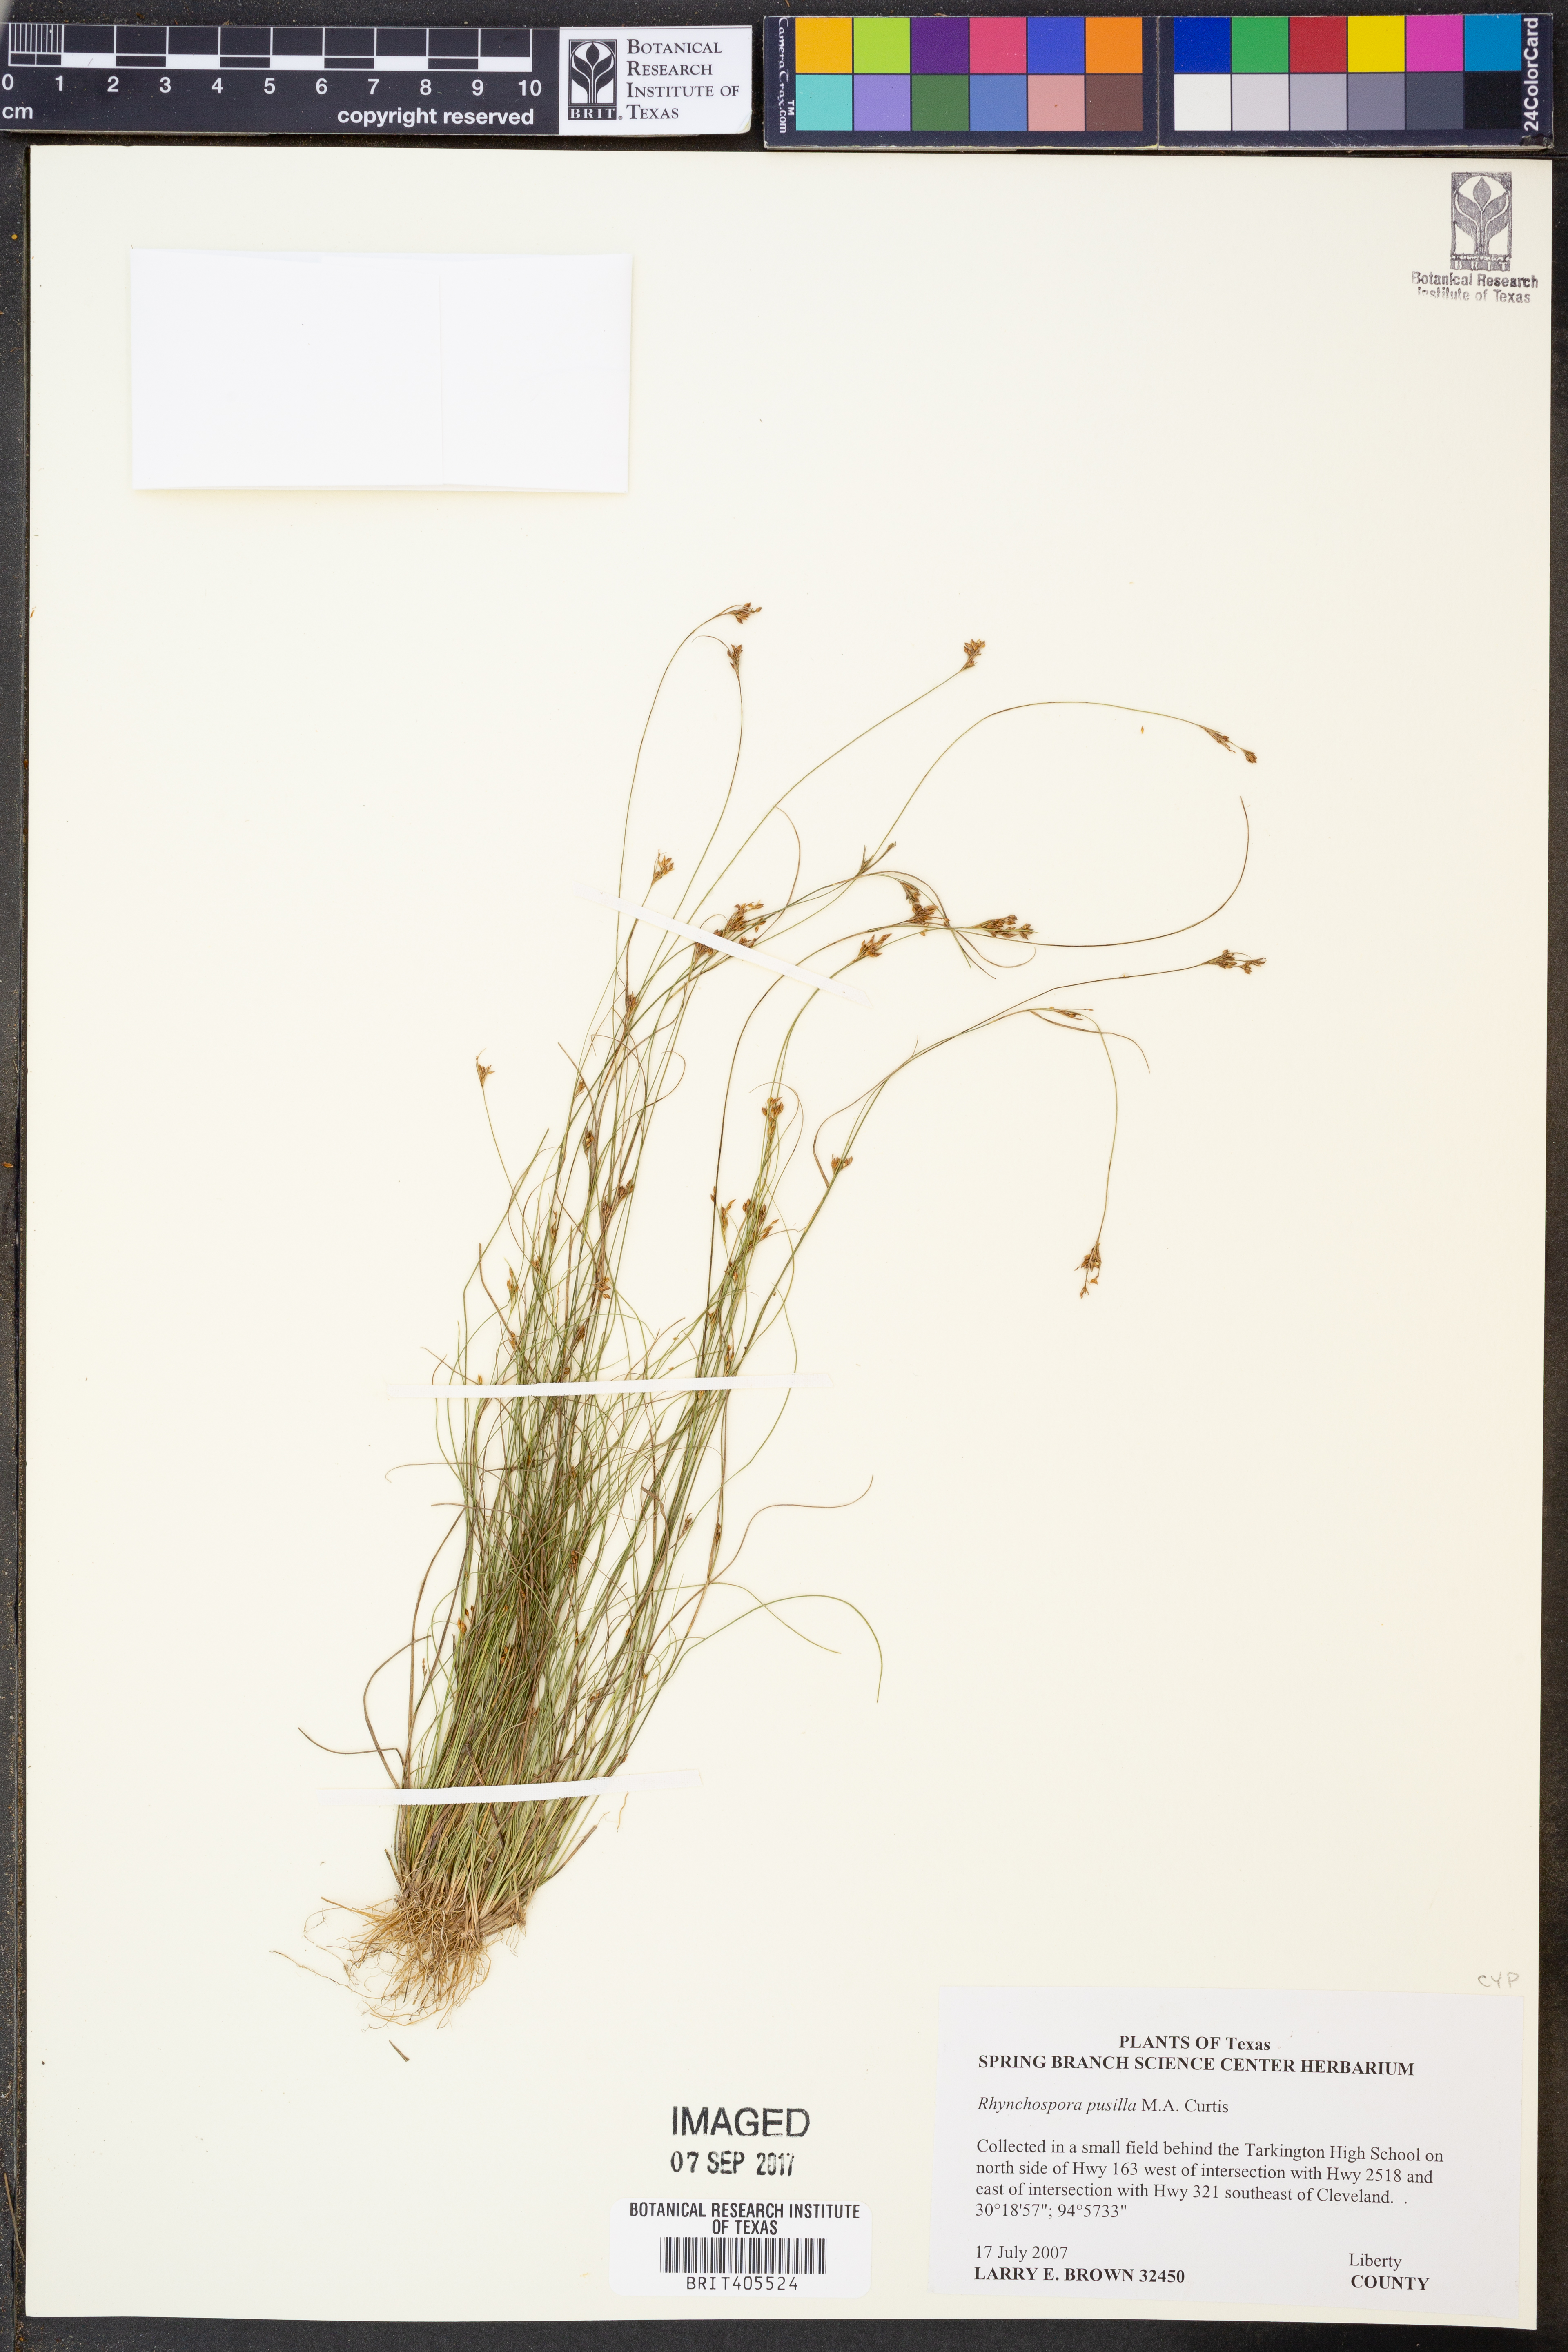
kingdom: Plantae
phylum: Tracheophyta
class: Liliopsida
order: Poales
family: Cyperaceae
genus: Rhynchospora
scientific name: Rhynchospora pusilla
